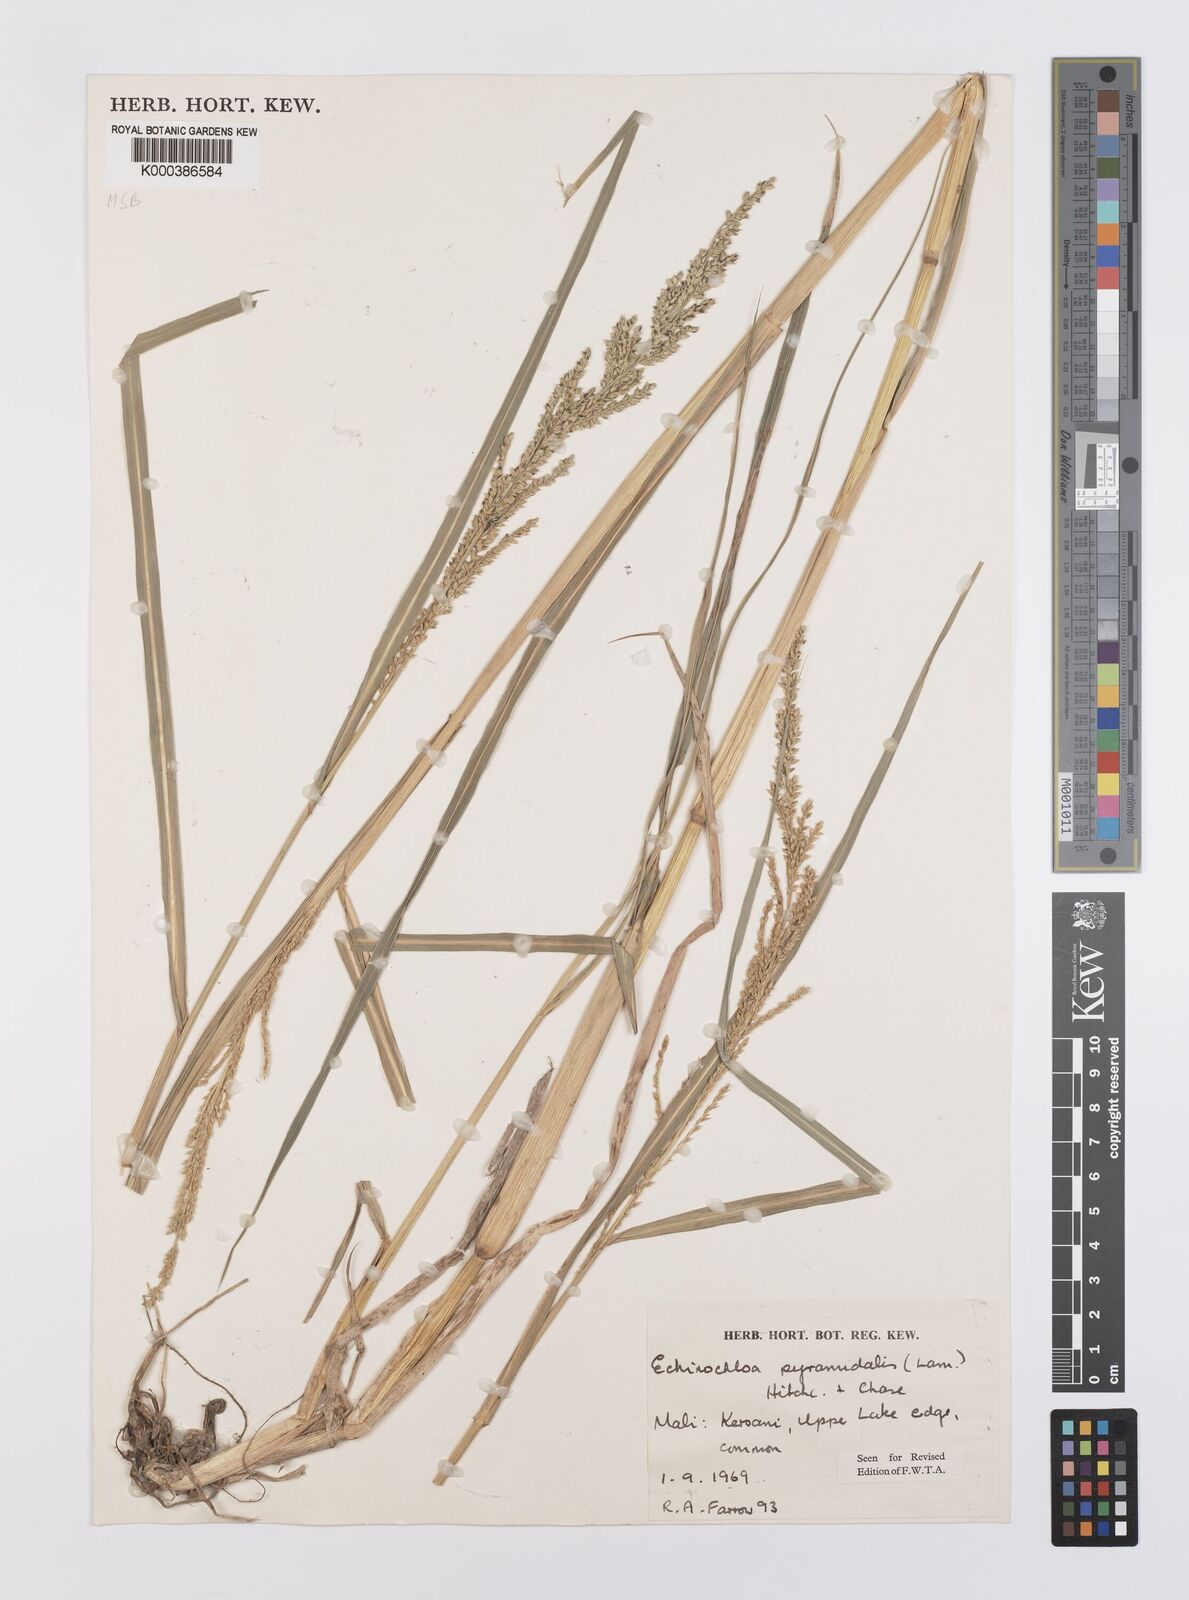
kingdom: Plantae
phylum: Tracheophyta
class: Liliopsida
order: Poales
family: Poaceae
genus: Echinochloa
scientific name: Echinochloa pyramidalis
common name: Antelope grass
